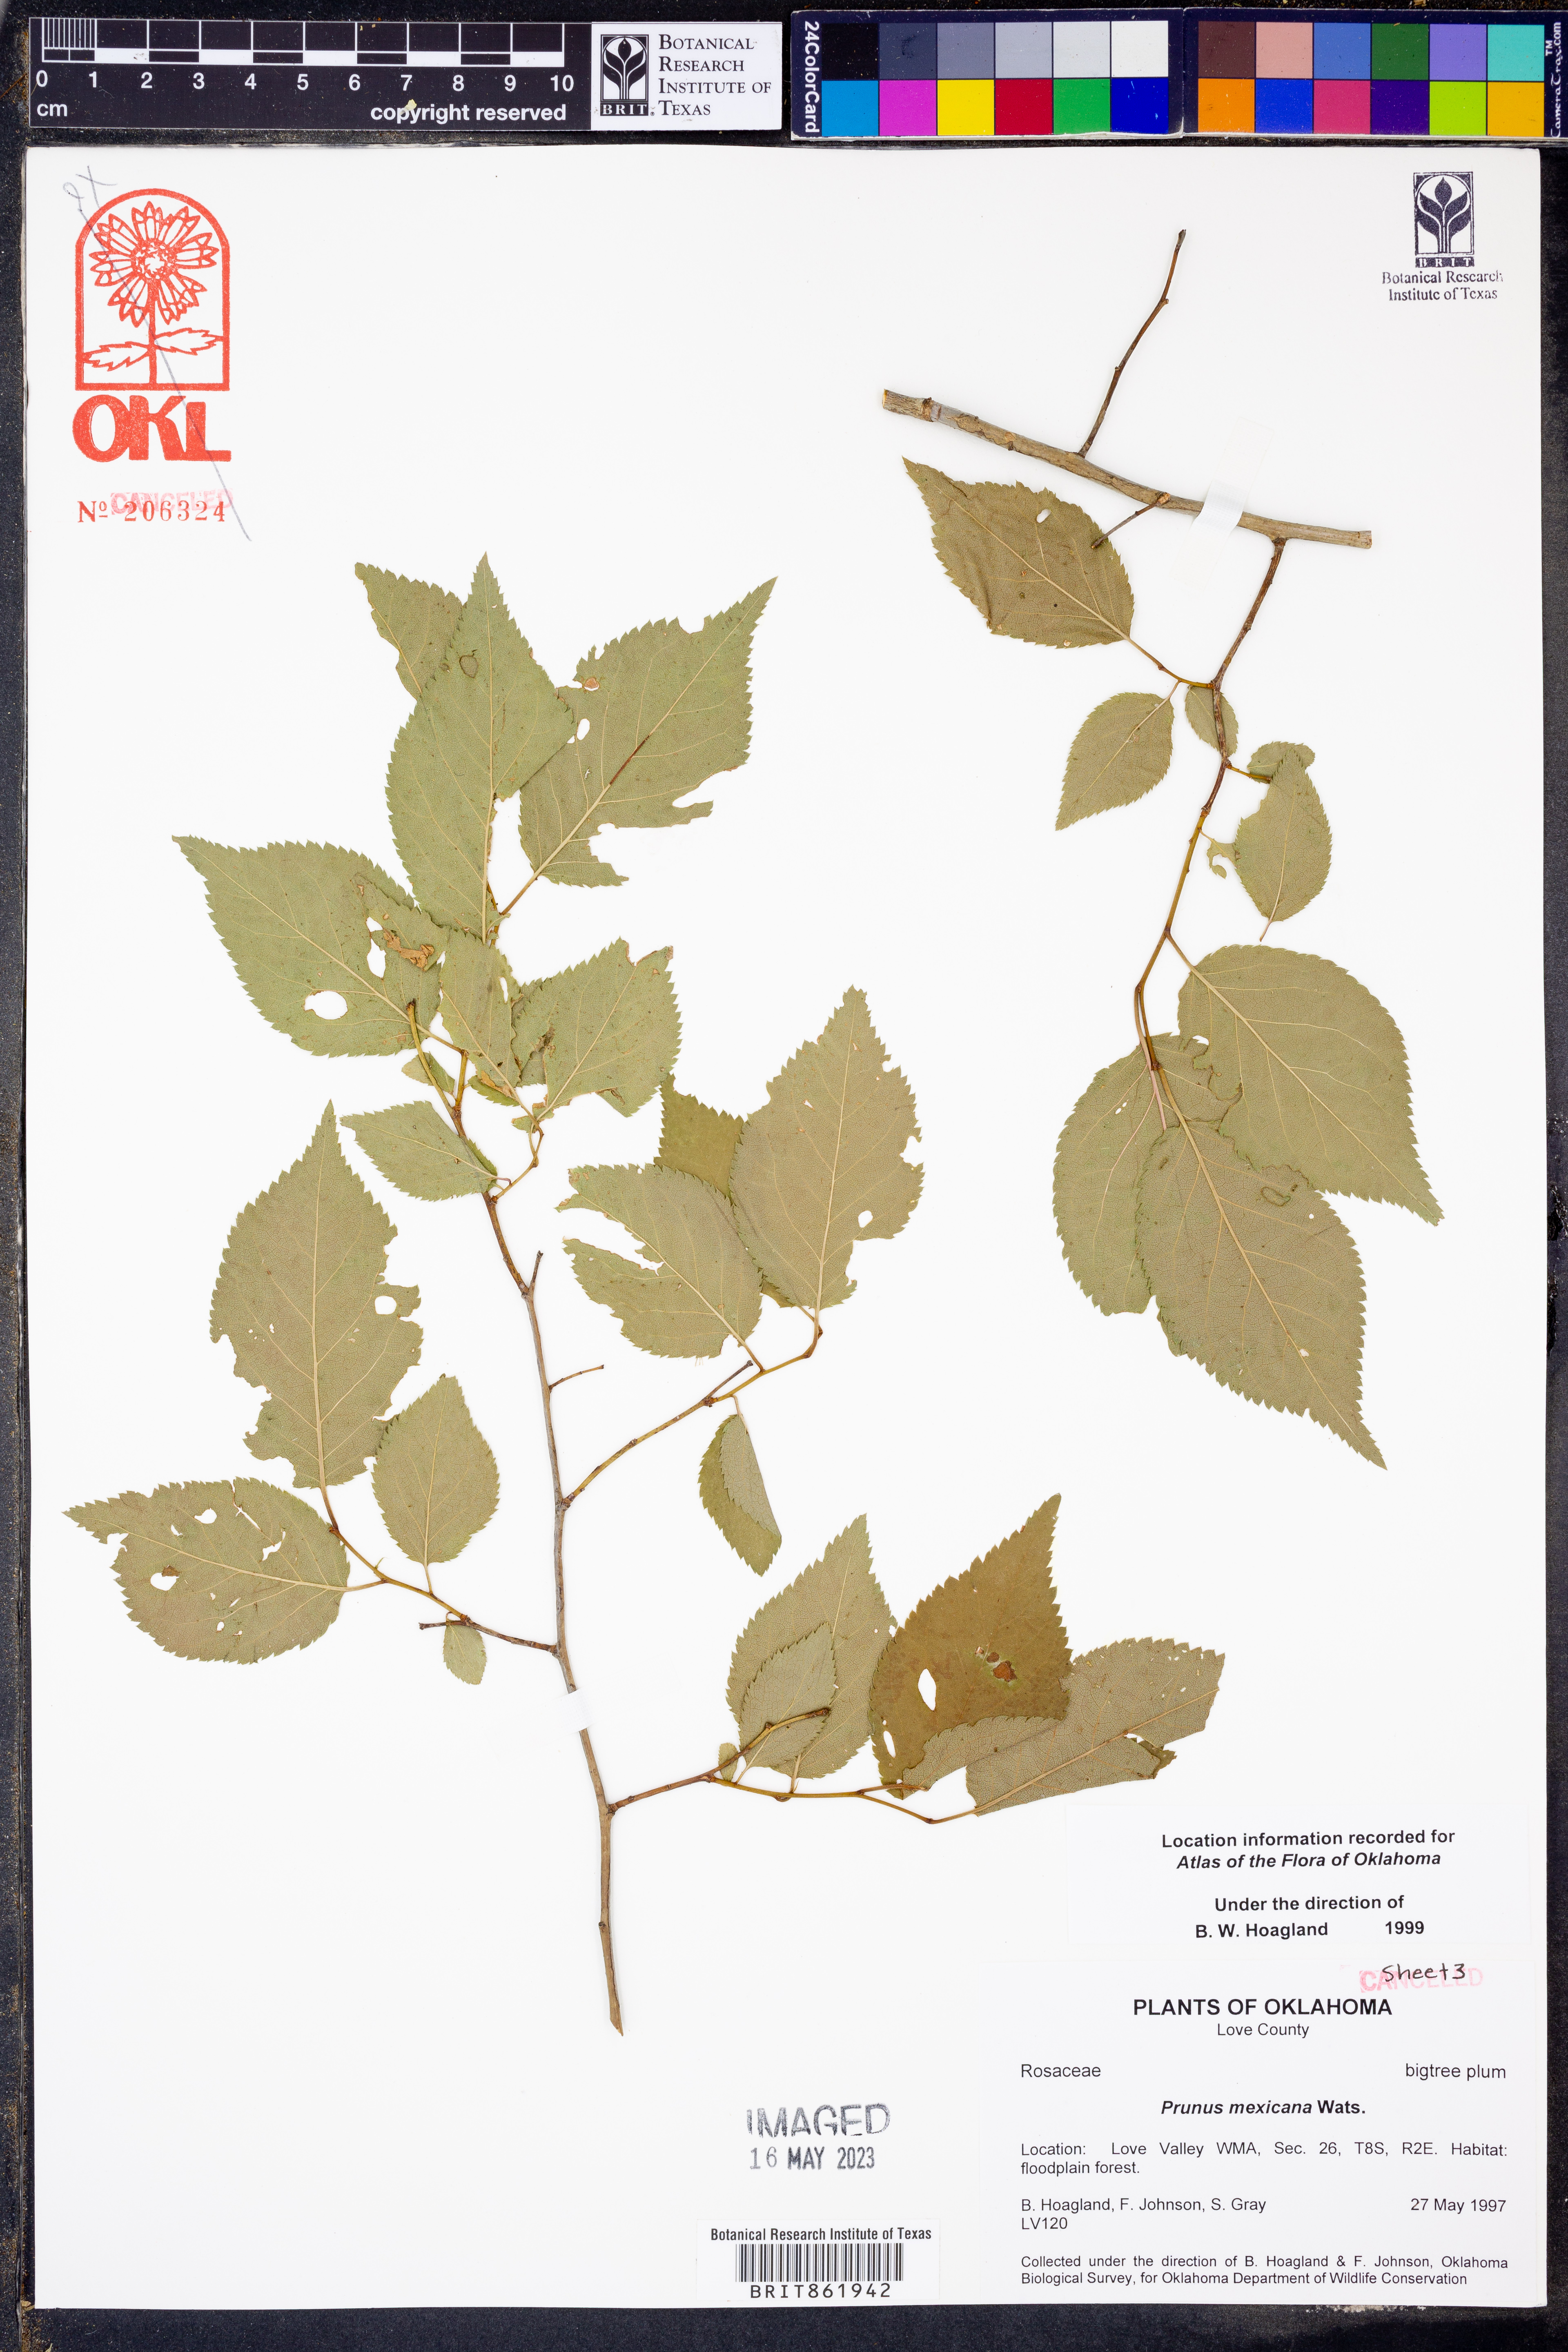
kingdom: Plantae
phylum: Tracheophyta
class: Magnoliopsida
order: Rosales
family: Rosaceae
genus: Prunus
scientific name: Prunus mexicana
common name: Mexican plum
